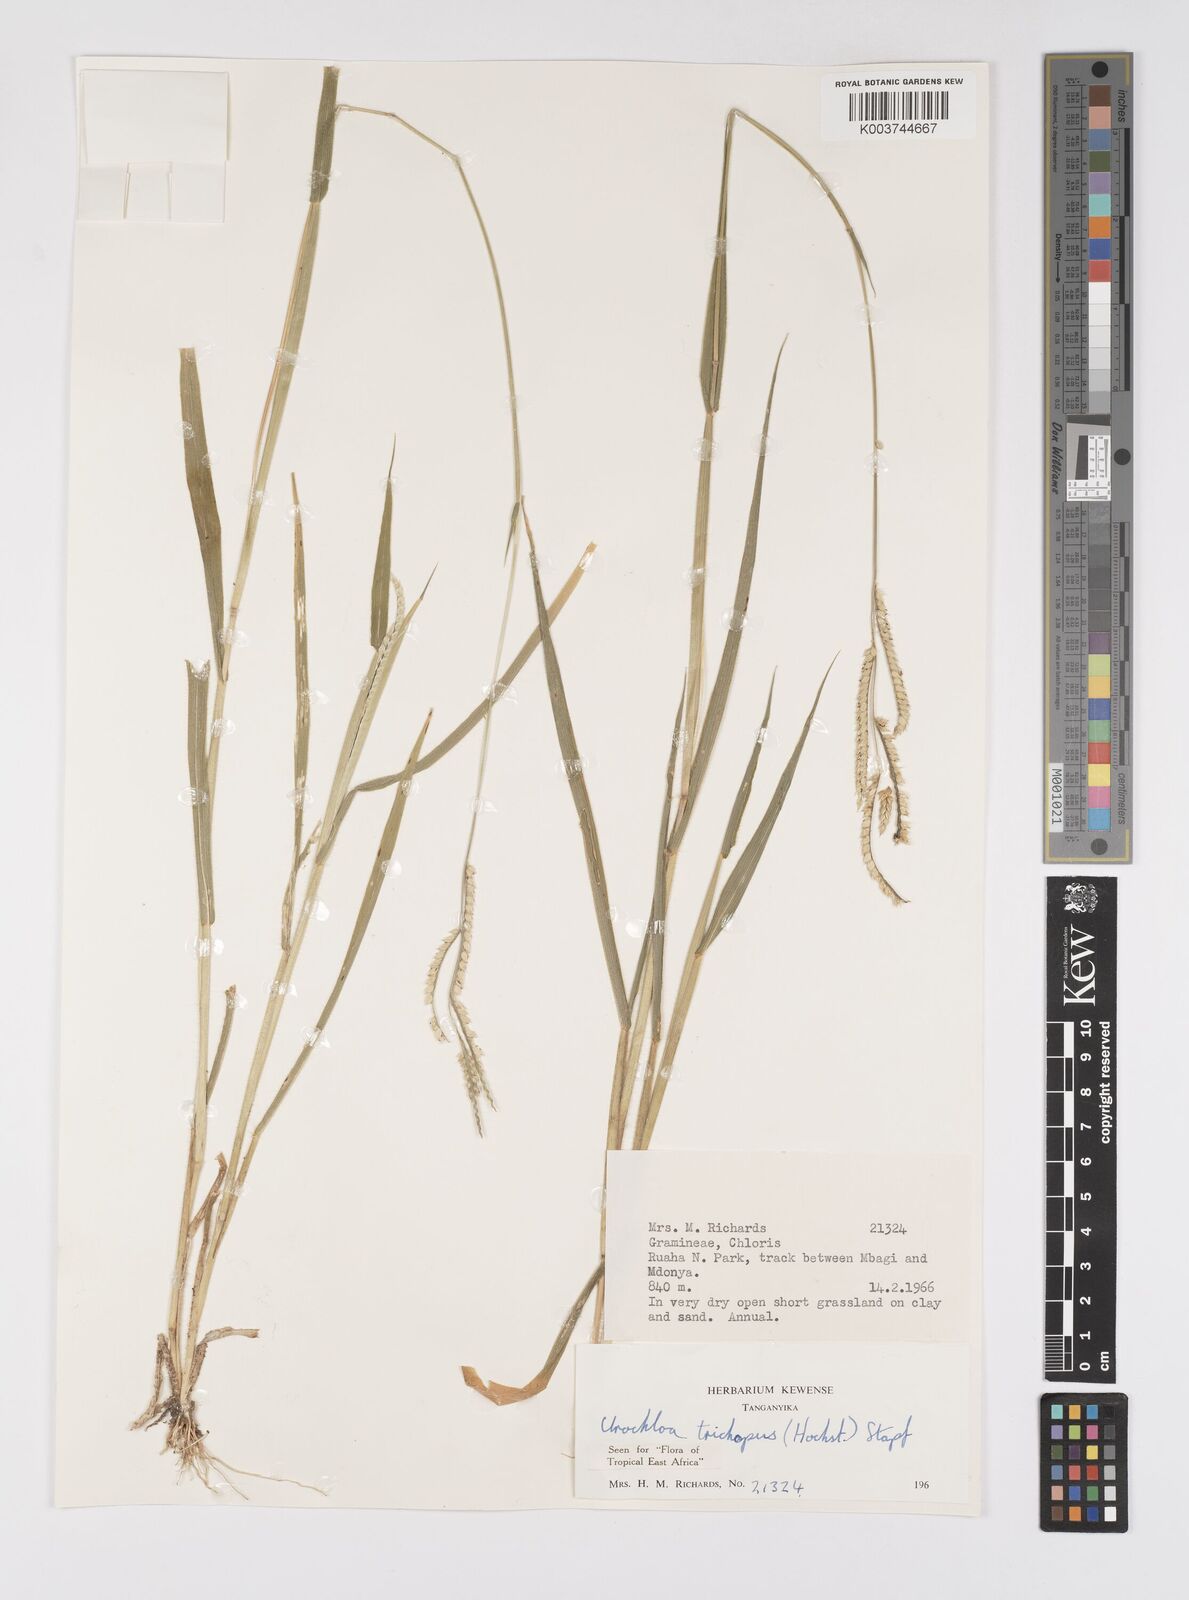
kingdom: Plantae
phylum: Tracheophyta
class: Liliopsida
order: Poales
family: Poaceae
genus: Urochloa
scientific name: Urochloa trichopus
